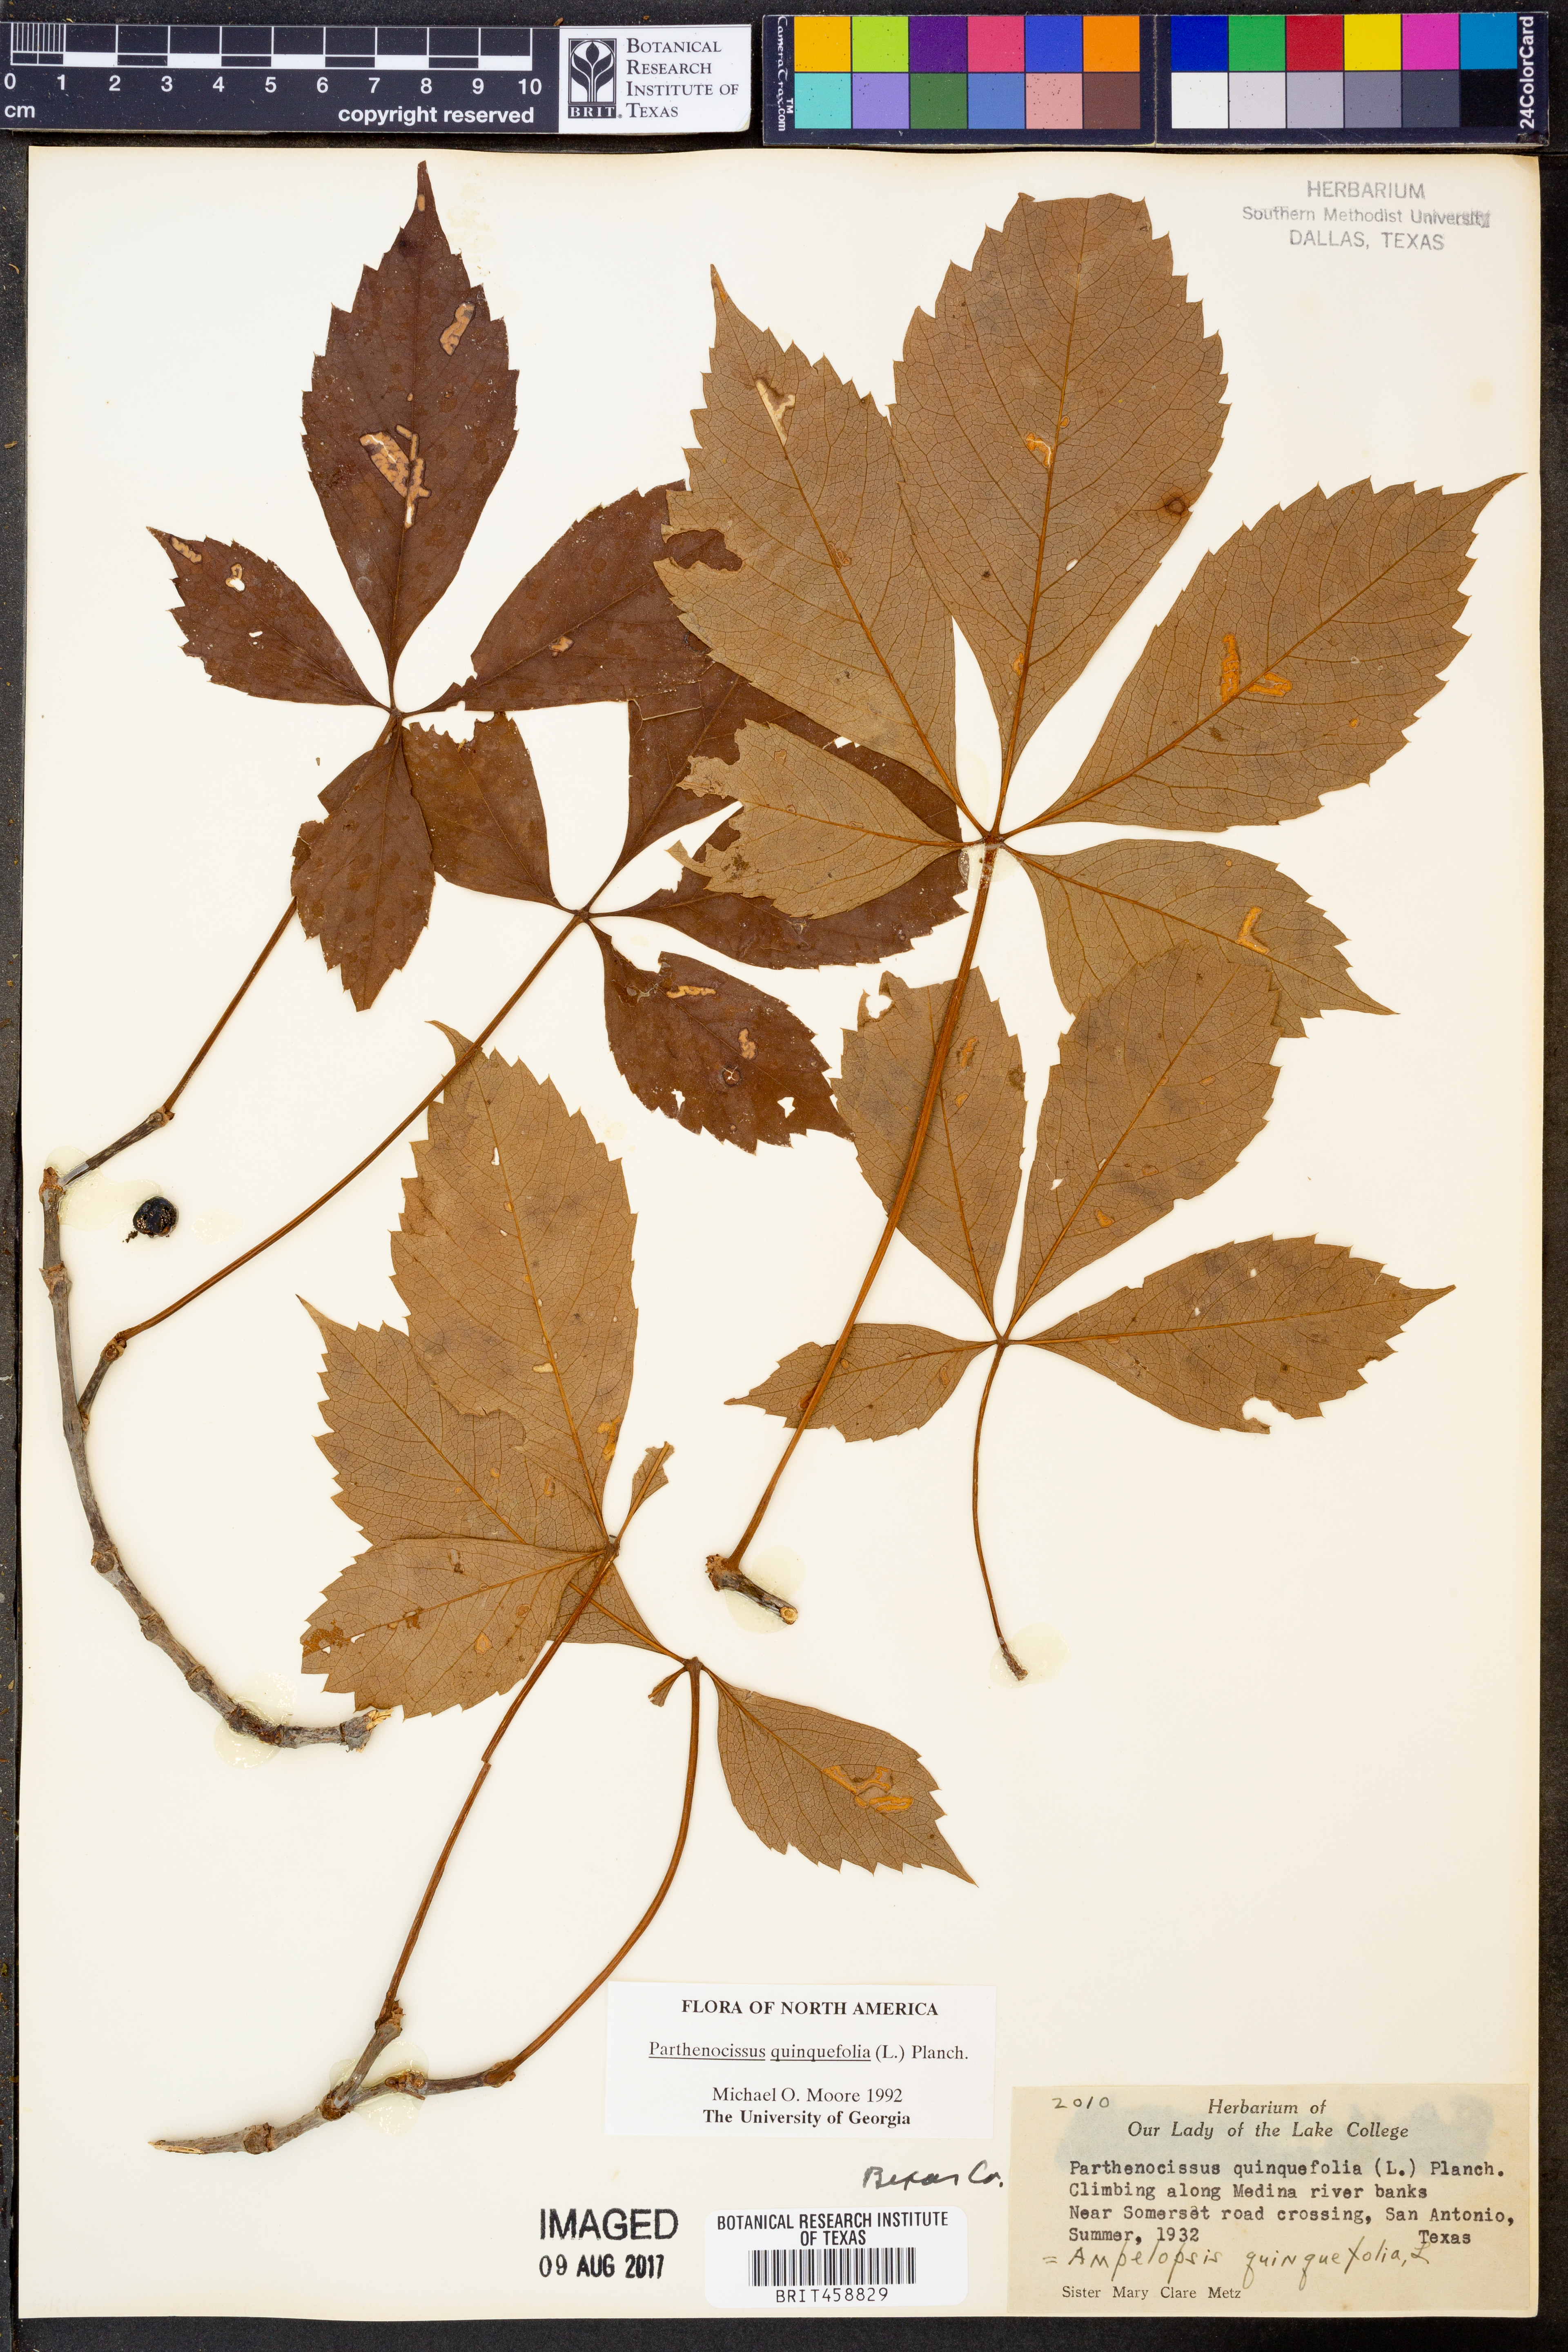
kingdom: Plantae
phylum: Tracheophyta
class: Magnoliopsida
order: Vitales
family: Vitaceae
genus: Parthenocissus
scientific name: Parthenocissus quinquefolia
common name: Virginia-creeper
